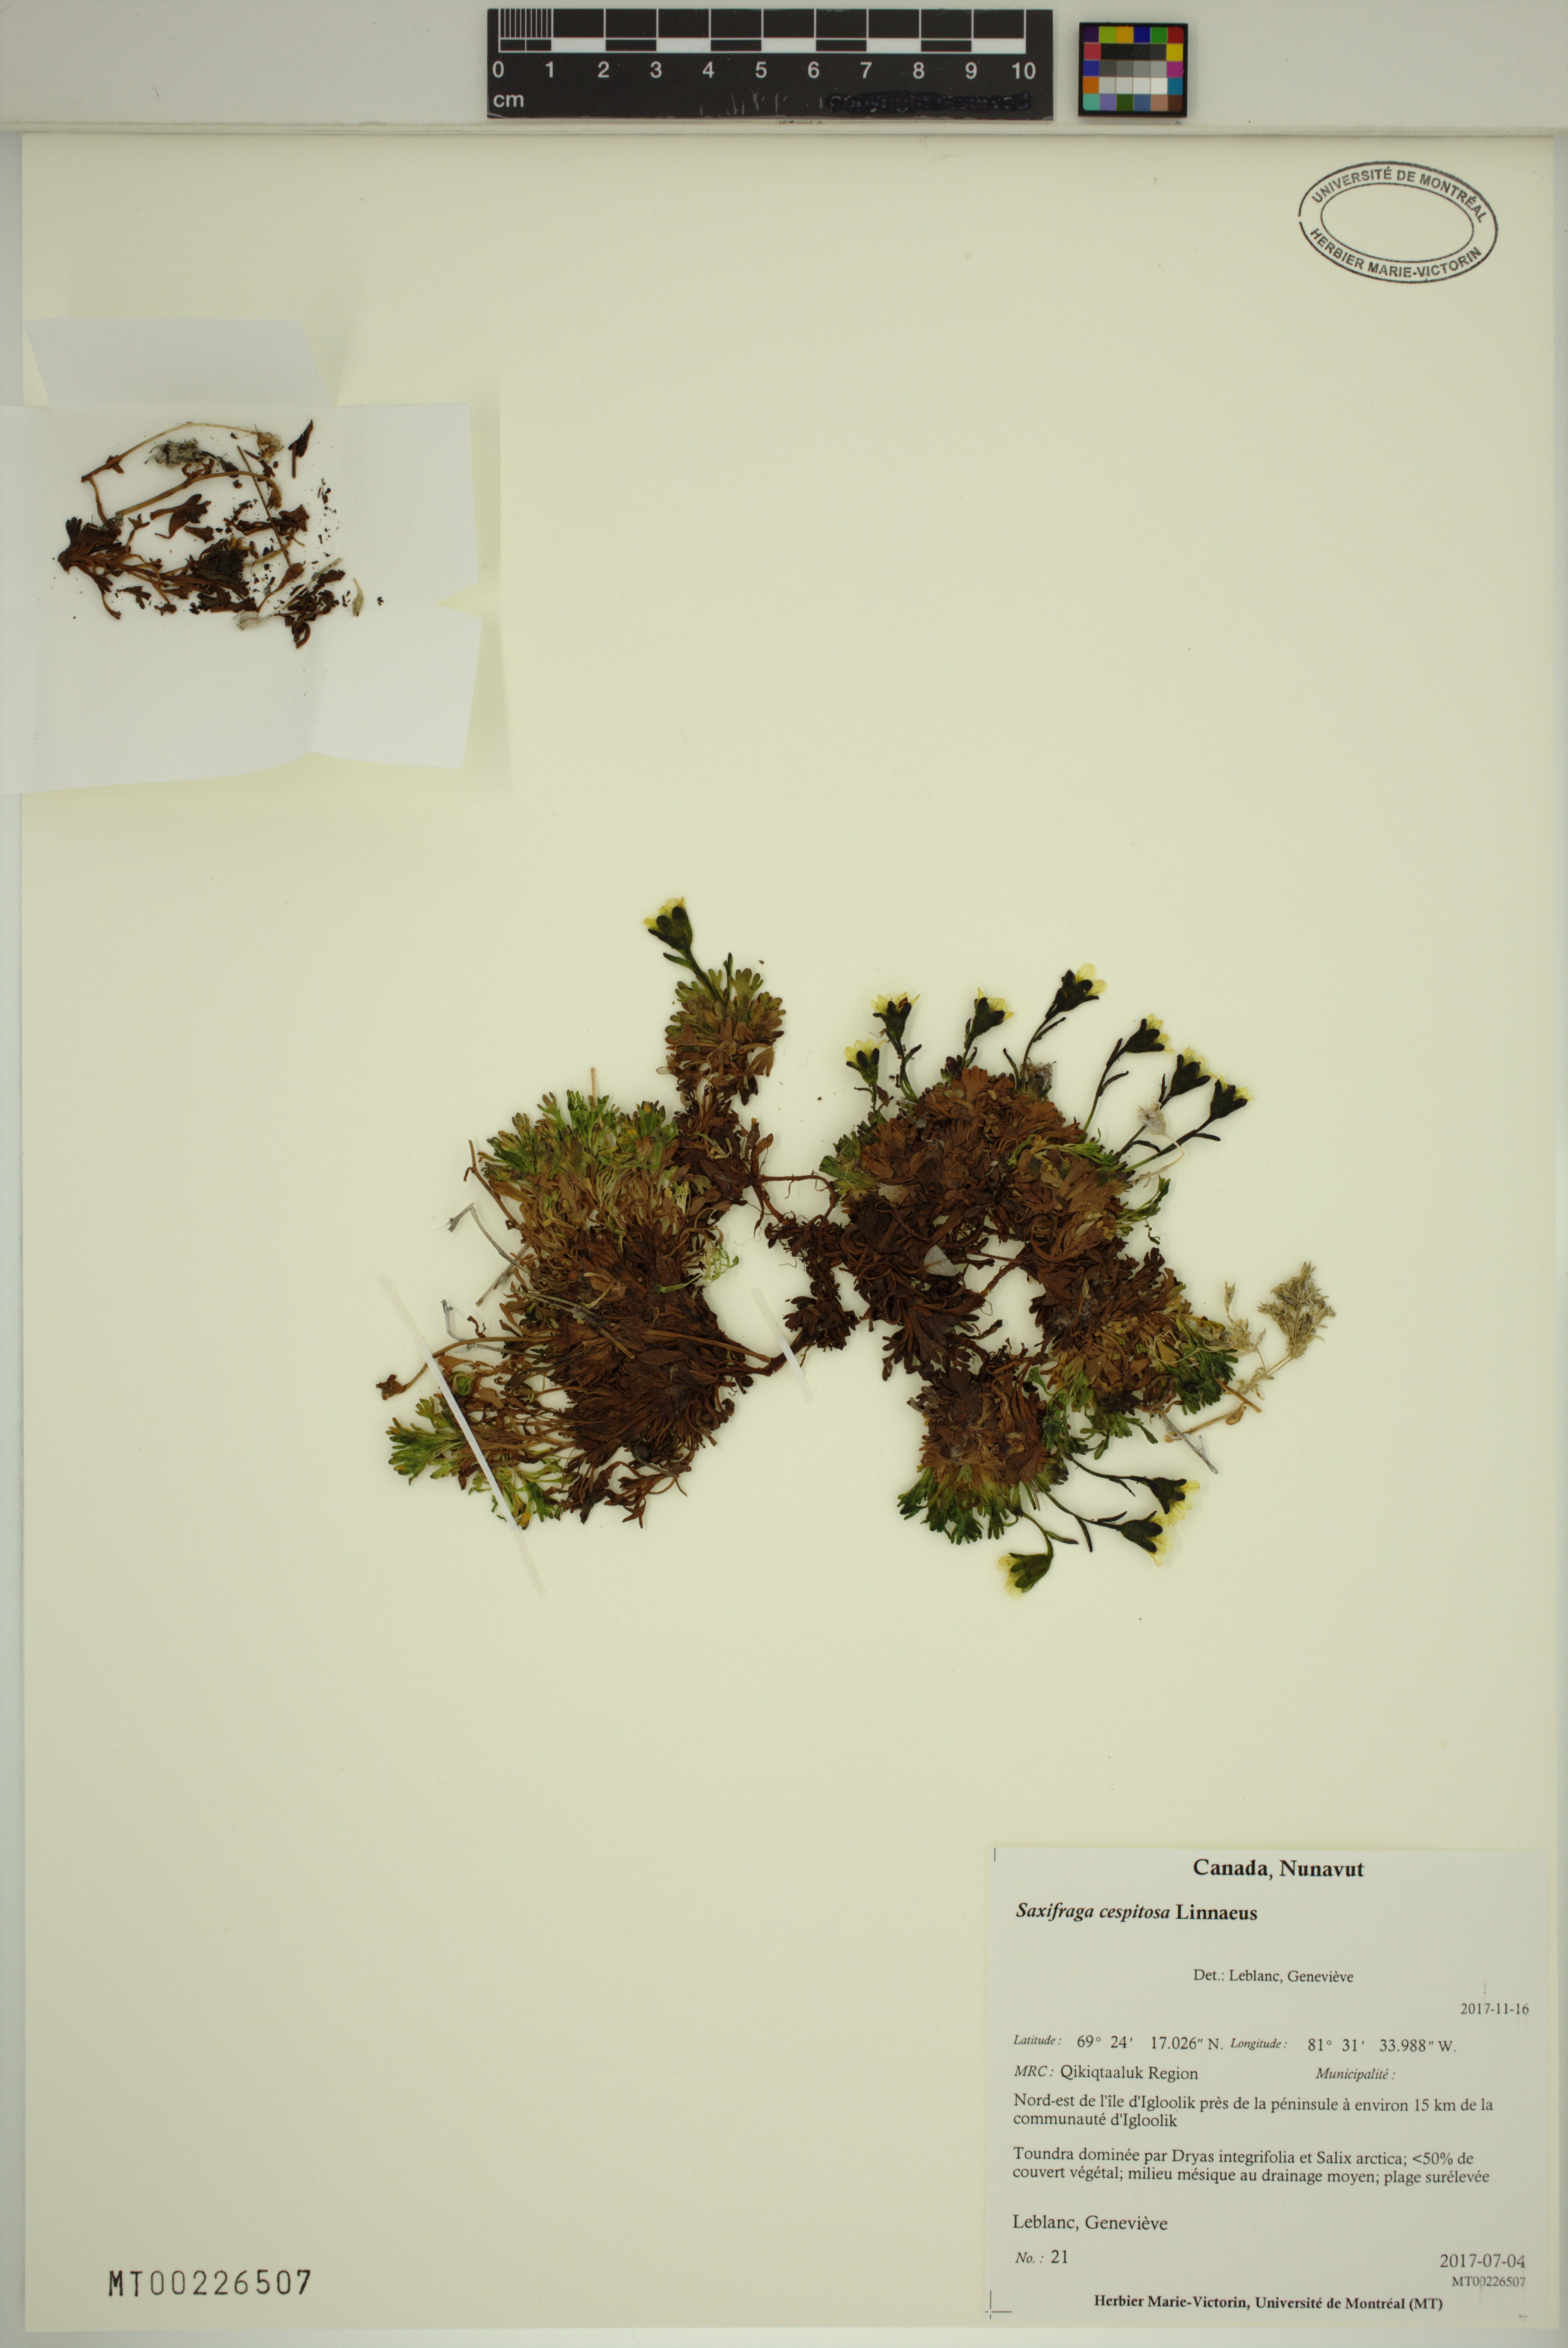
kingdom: Plantae
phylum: Tracheophyta
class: Magnoliopsida
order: Saxifragales
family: Saxifragaceae
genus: Saxifraga
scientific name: Saxifraga cespitosa
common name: Tufted saxifrage
